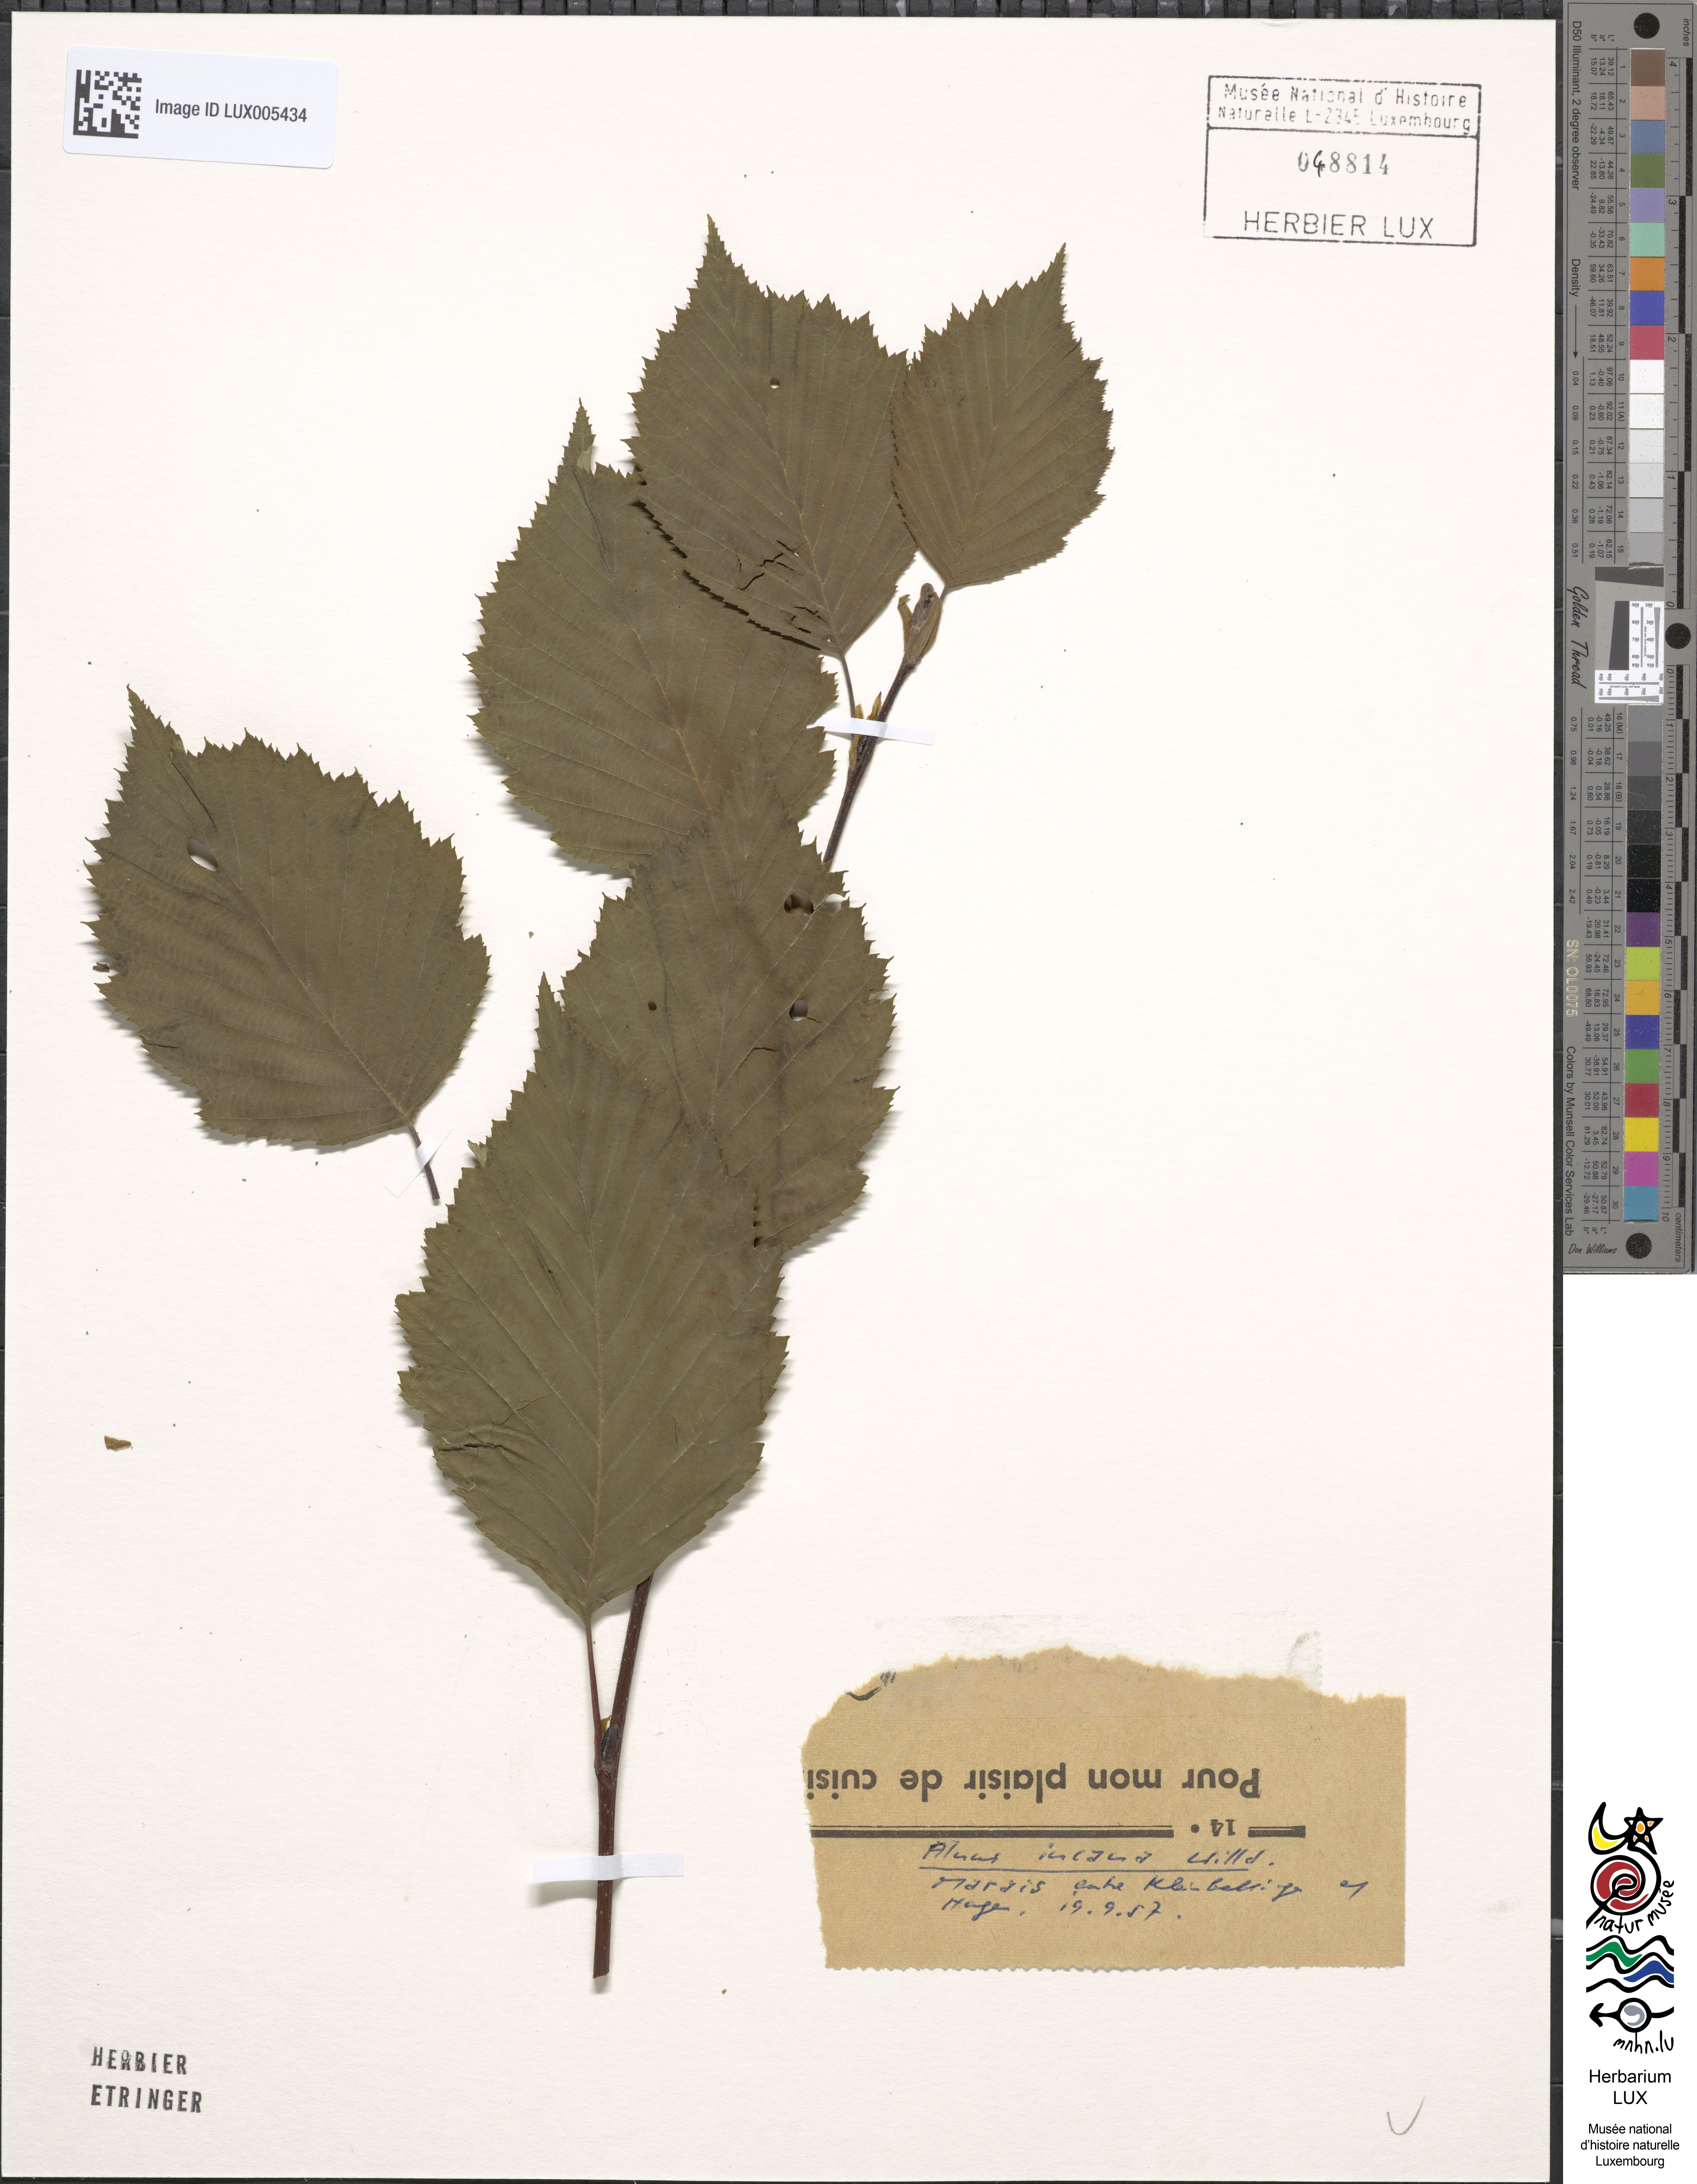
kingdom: Plantae
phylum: Tracheophyta
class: Magnoliopsida
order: Fagales
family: Betulaceae
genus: Alnus
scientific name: Alnus incana
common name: Grey alder
